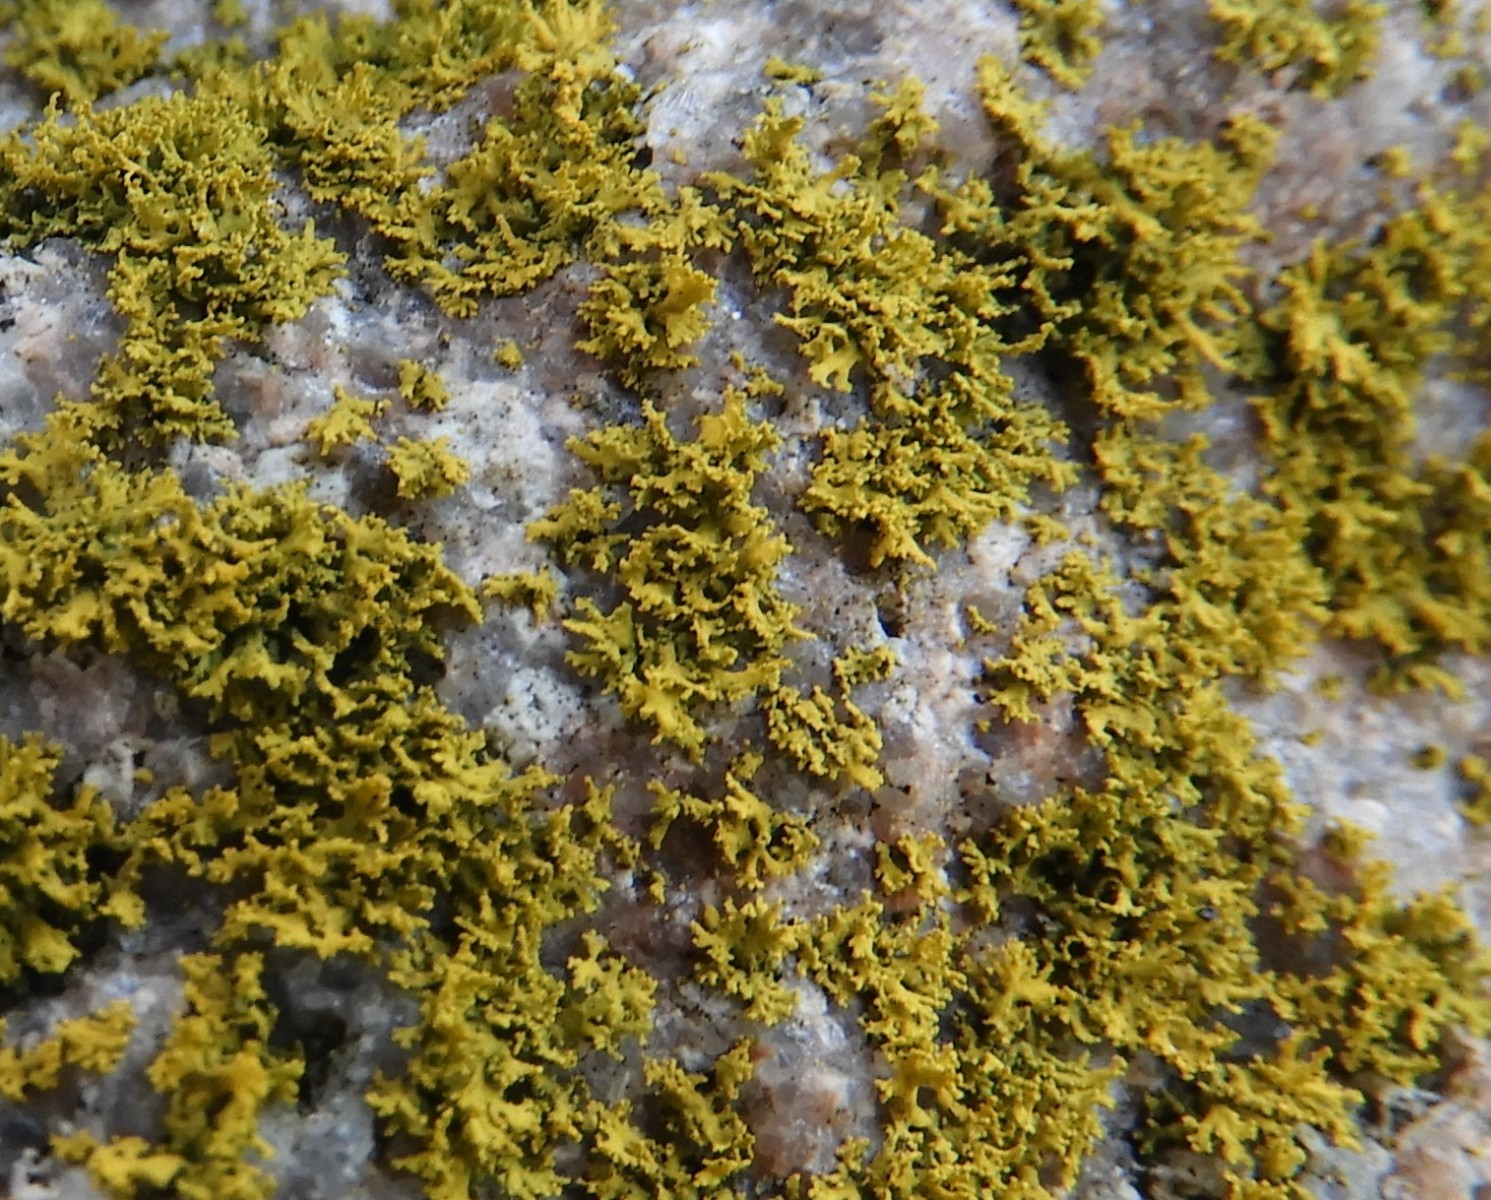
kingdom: Fungi
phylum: Ascomycota
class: Lecanoromycetes
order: Teloschistales
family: Teloschistaceae
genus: Polycauliona
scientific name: Polycauliona candelaria
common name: tue-orangelav
